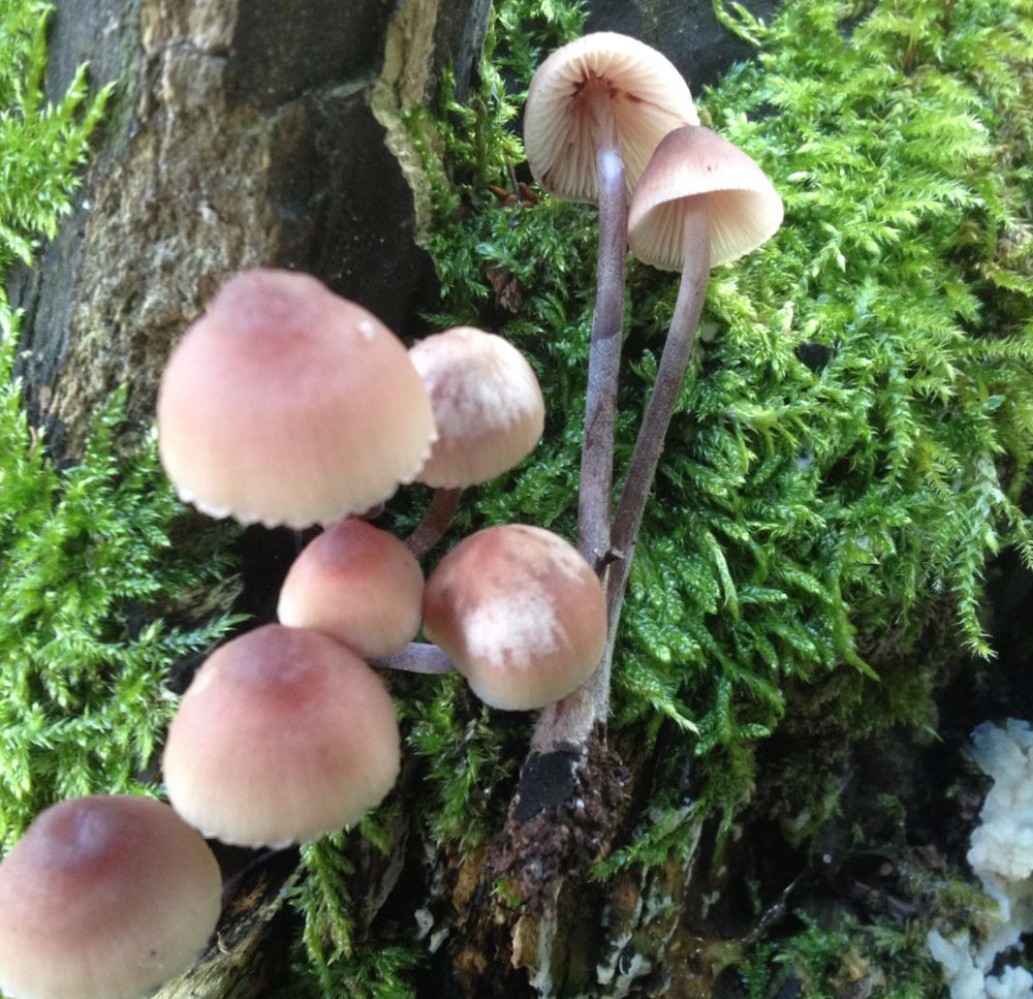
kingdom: Fungi
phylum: Basidiomycota
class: Agaricomycetes
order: Agaricales
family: Mycenaceae
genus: Mycena
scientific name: Mycena haematopus
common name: blødende huesvamp
